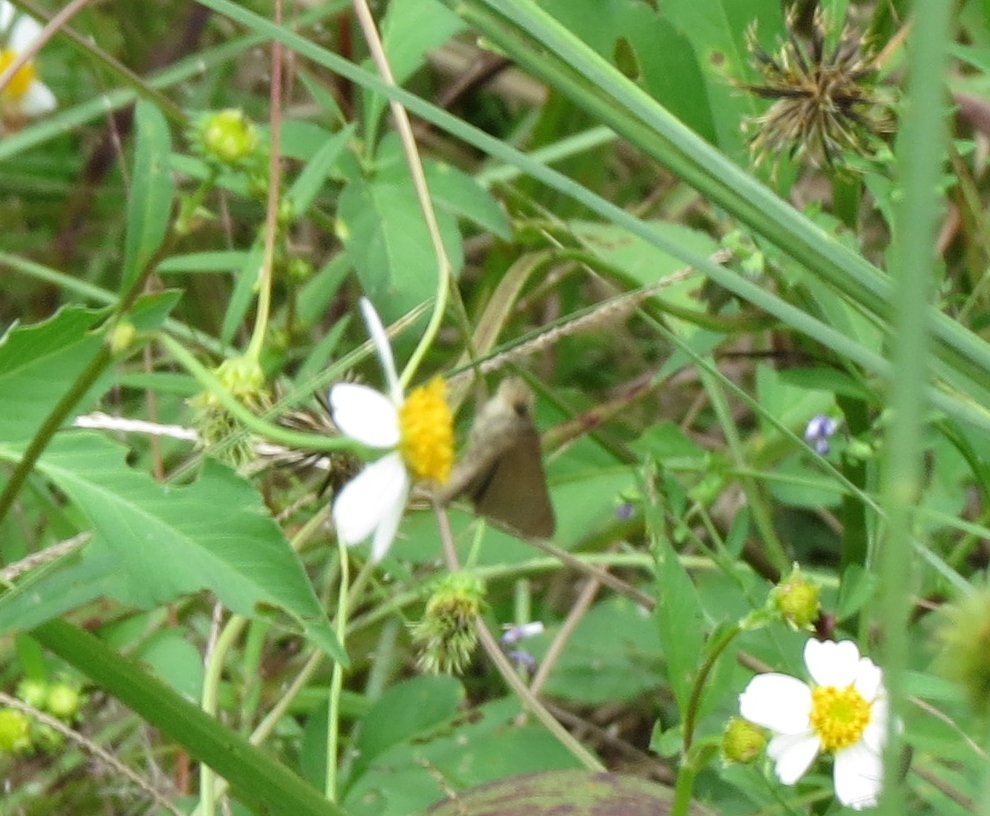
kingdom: Animalia
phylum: Arthropoda
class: Insecta
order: Lepidoptera
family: Hesperiidae
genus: Euphyes
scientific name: Euphyes vestris
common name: Dun Skipper
